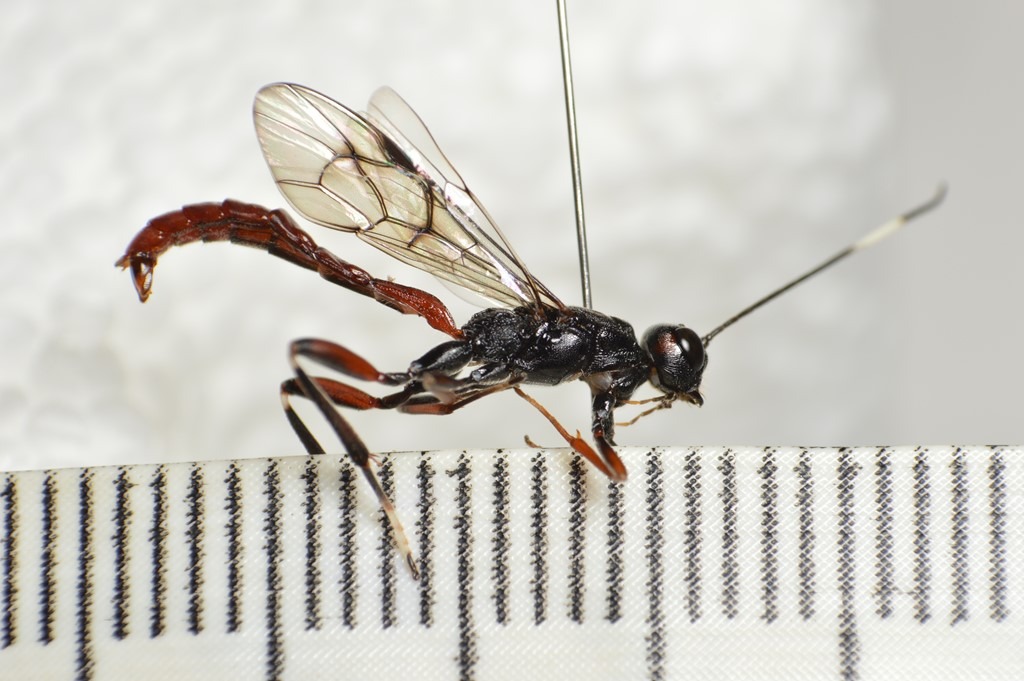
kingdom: Animalia
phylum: Arthropoda
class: Insecta
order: Hymenoptera
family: Ichneumonidae
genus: Xorides
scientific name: Xorides sepulchralis
